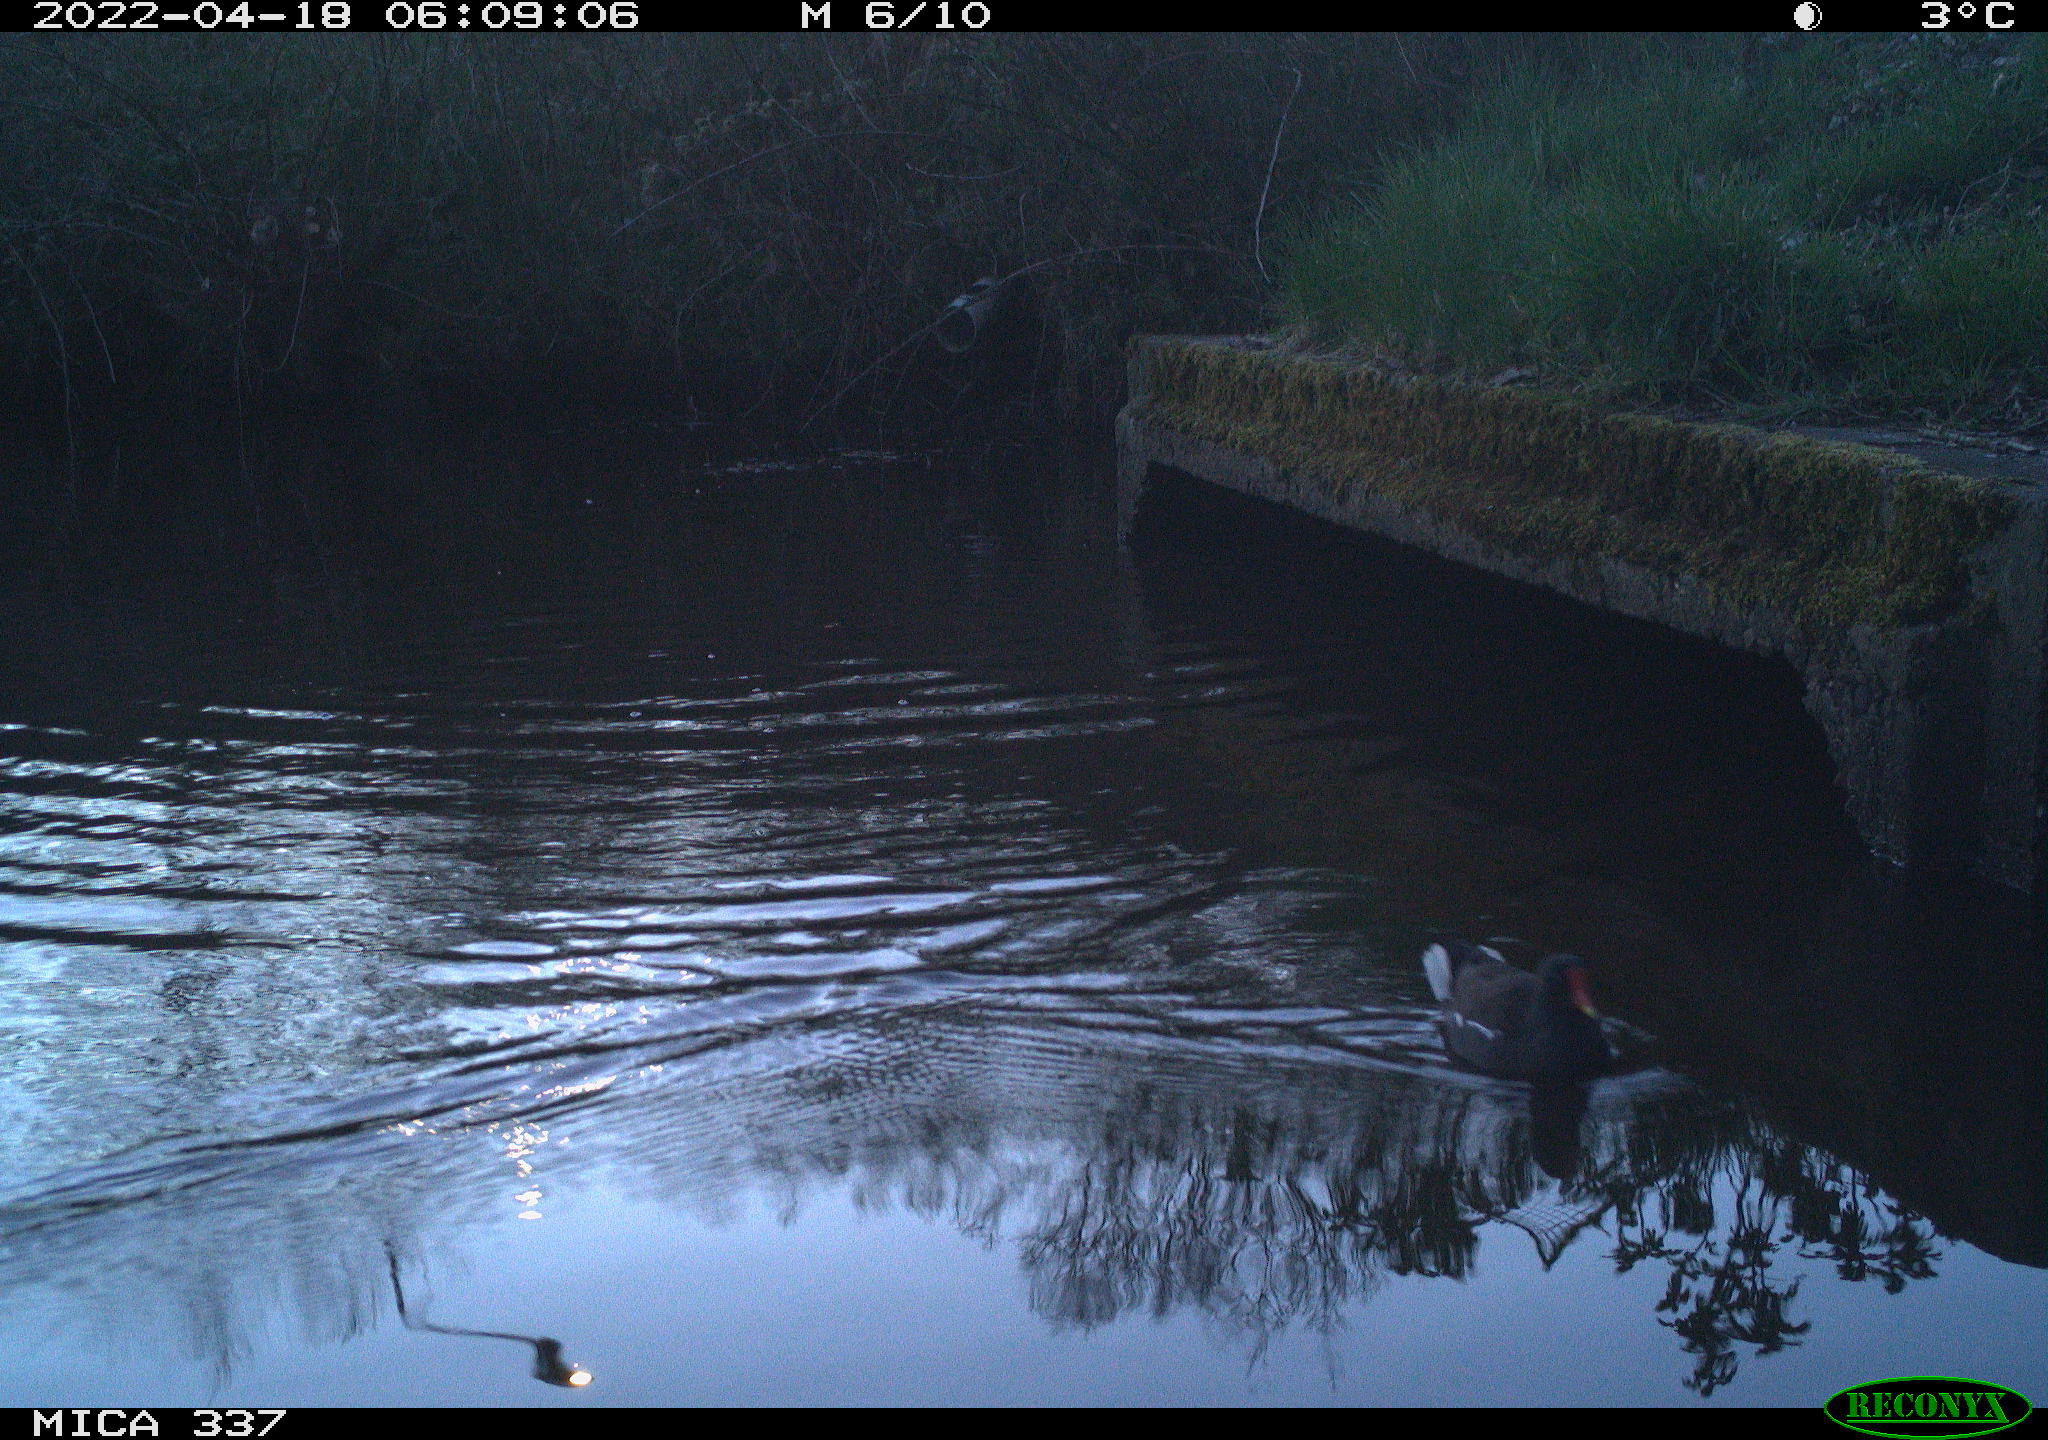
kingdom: Animalia
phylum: Chordata
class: Aves
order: Gruiformes
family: Rallidae
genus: Gallinula
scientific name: Gallinula chloropus
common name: Common moorhen
